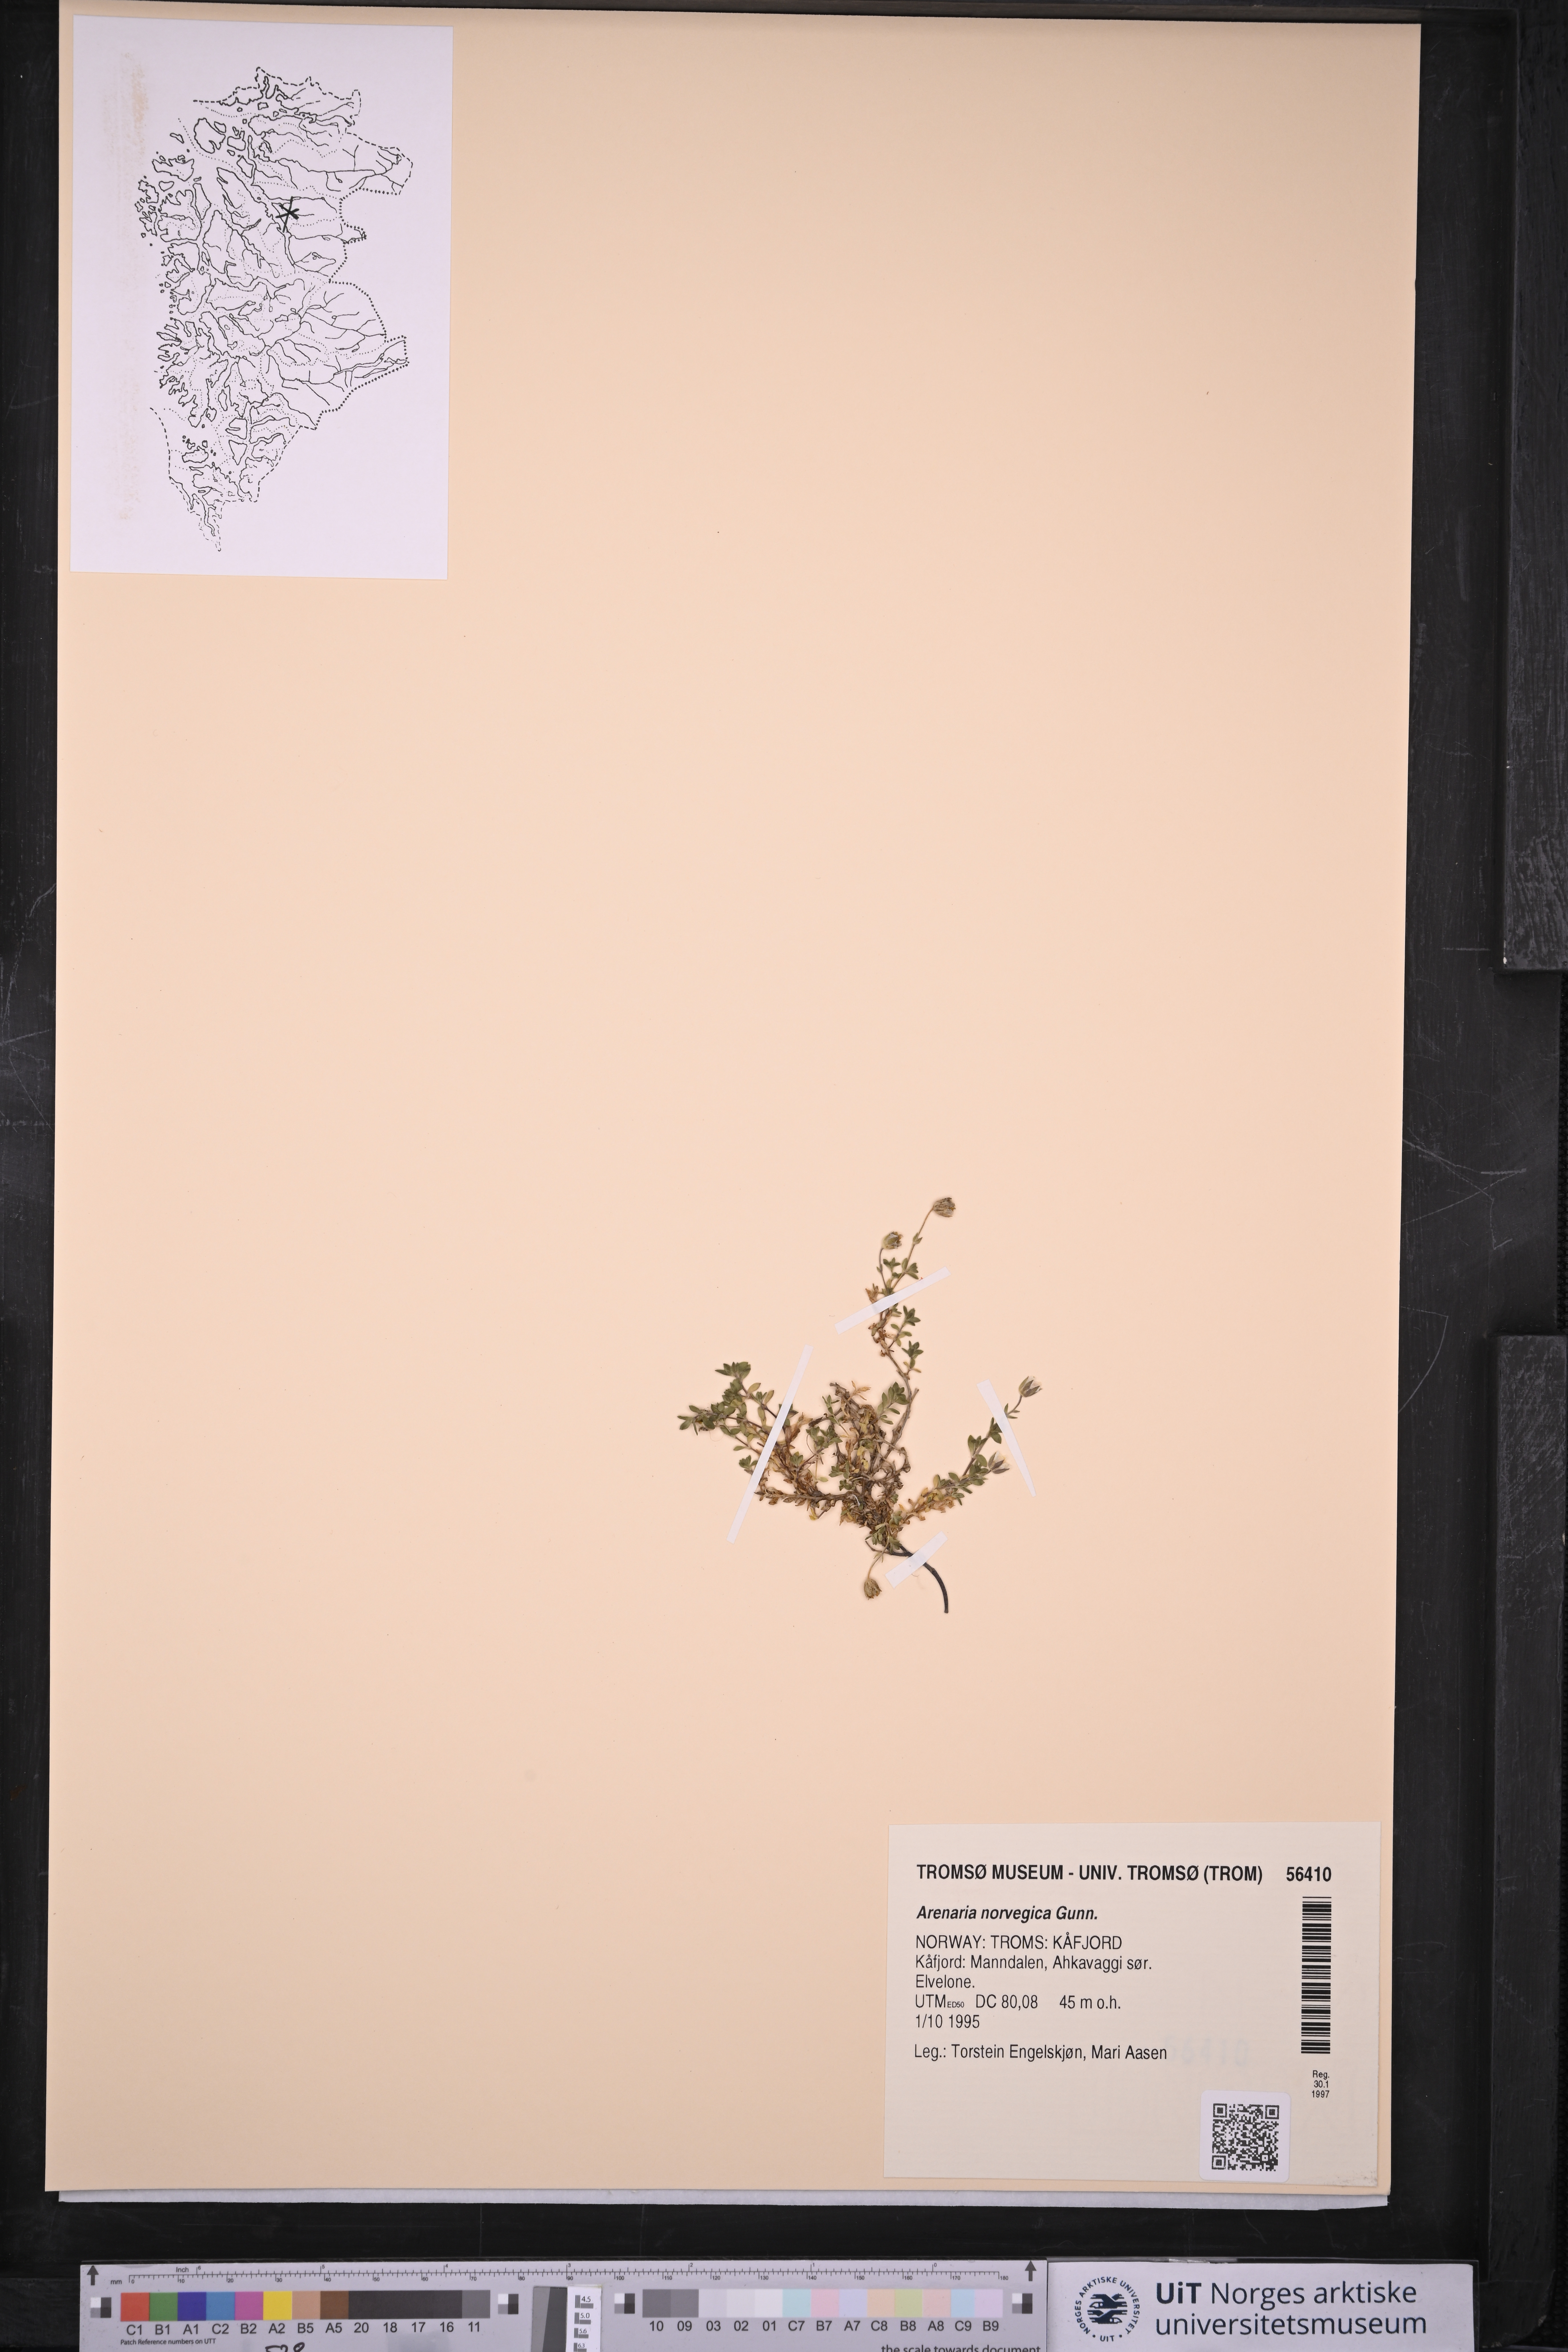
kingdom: Plantae
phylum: Tracheophyta
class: Magnoliopsida
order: Caryophyllales
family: Caryophyllaceae
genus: Arenaria
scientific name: Arenaria norvegica
